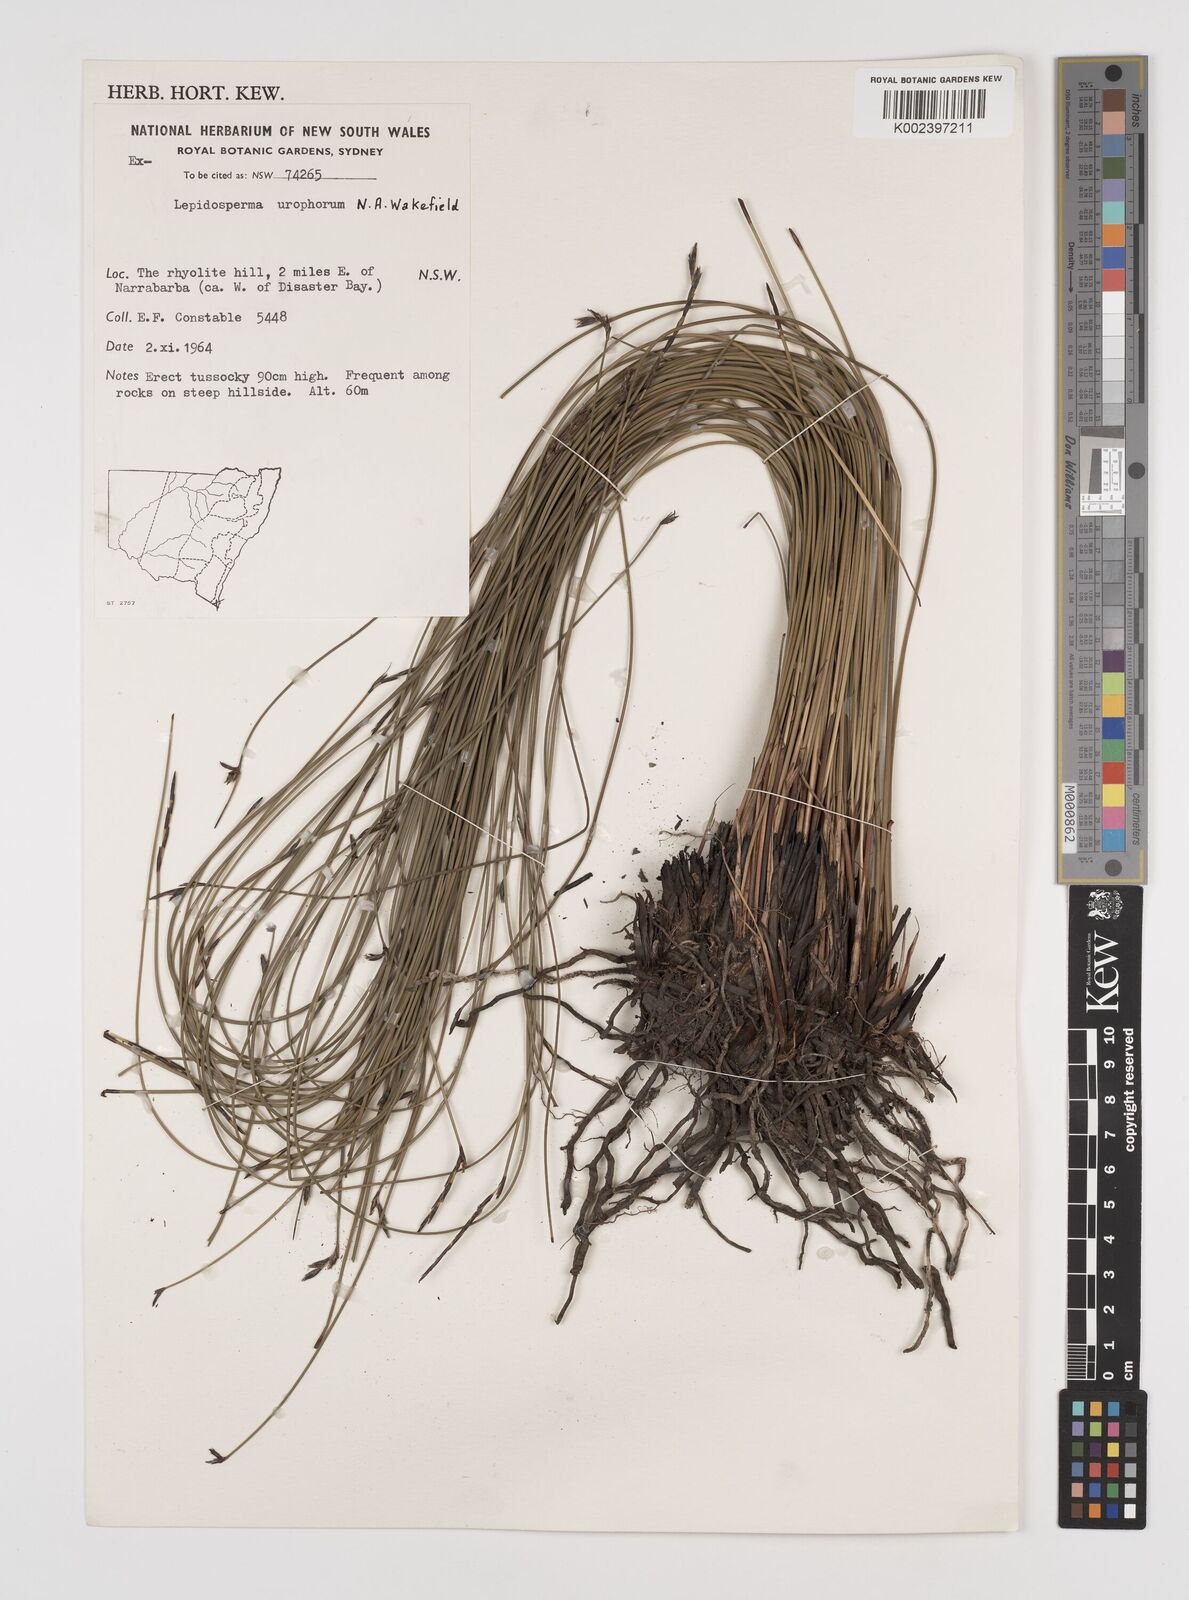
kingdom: Plantae
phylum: Tracheophyta
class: Liliopsida
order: Poales
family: Cyperaceae
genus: Lepidosperma
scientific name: Lepidosperma urophorum
